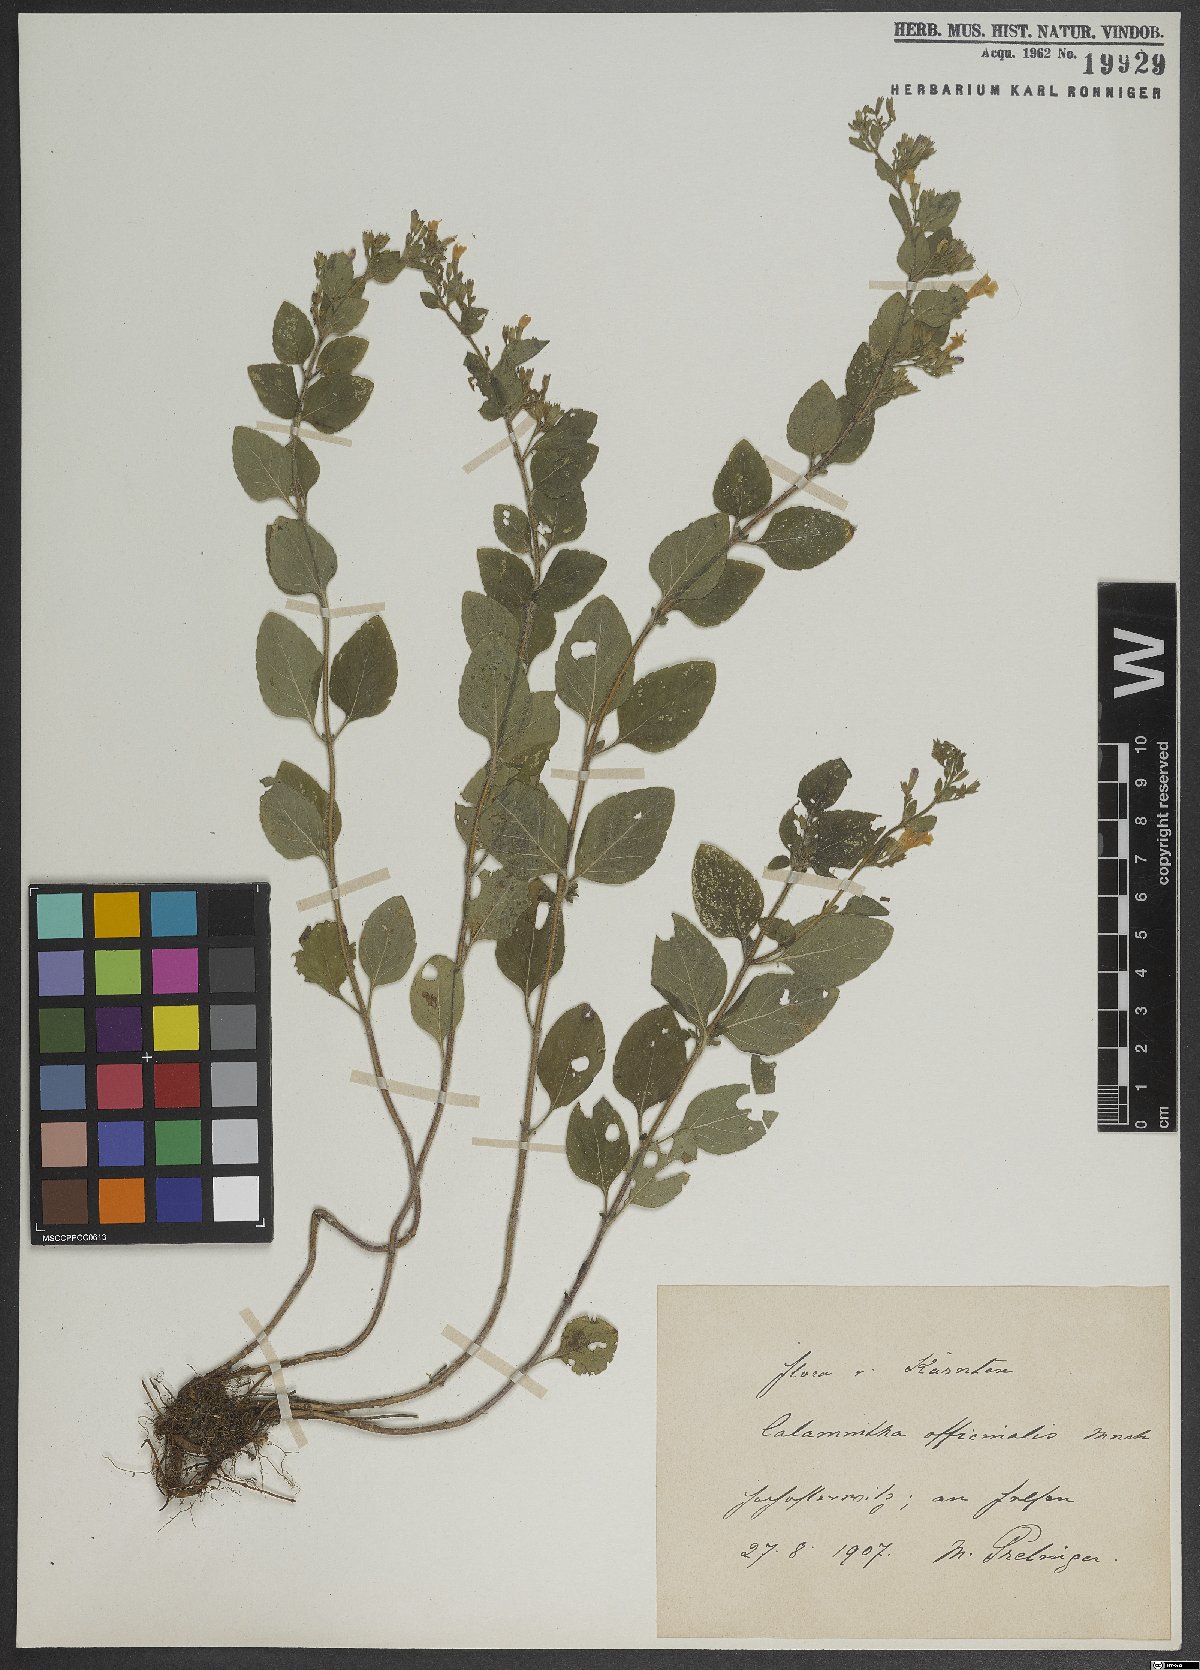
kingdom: Plantae
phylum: Tracheophyta
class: Magnoliopsida
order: Lamiales
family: Lamiaceae
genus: Clinopodium
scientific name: Clinopodium nepeta
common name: Lesser calamint
